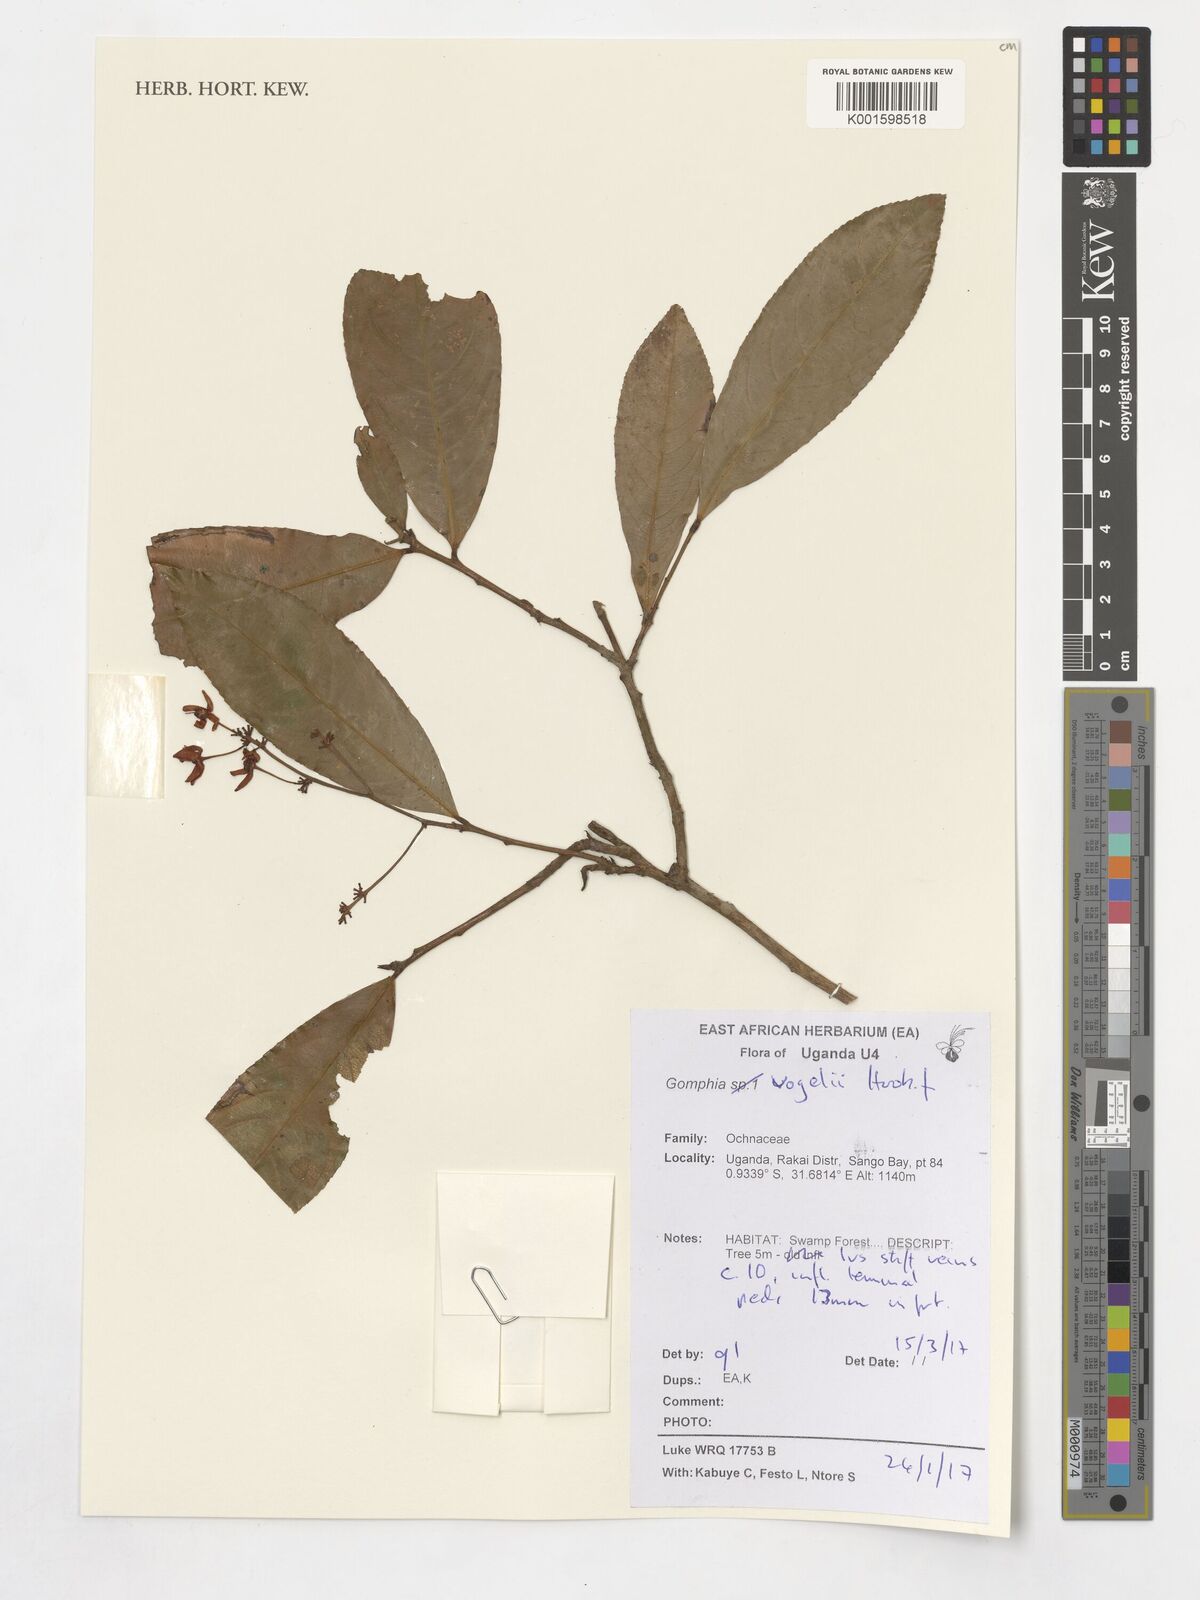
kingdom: Plantae
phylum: Tracheophyta
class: Magnoliopsida
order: Malpighiales
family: Ochnaceae
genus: Campylospermum
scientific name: Campylospermum vogelii
